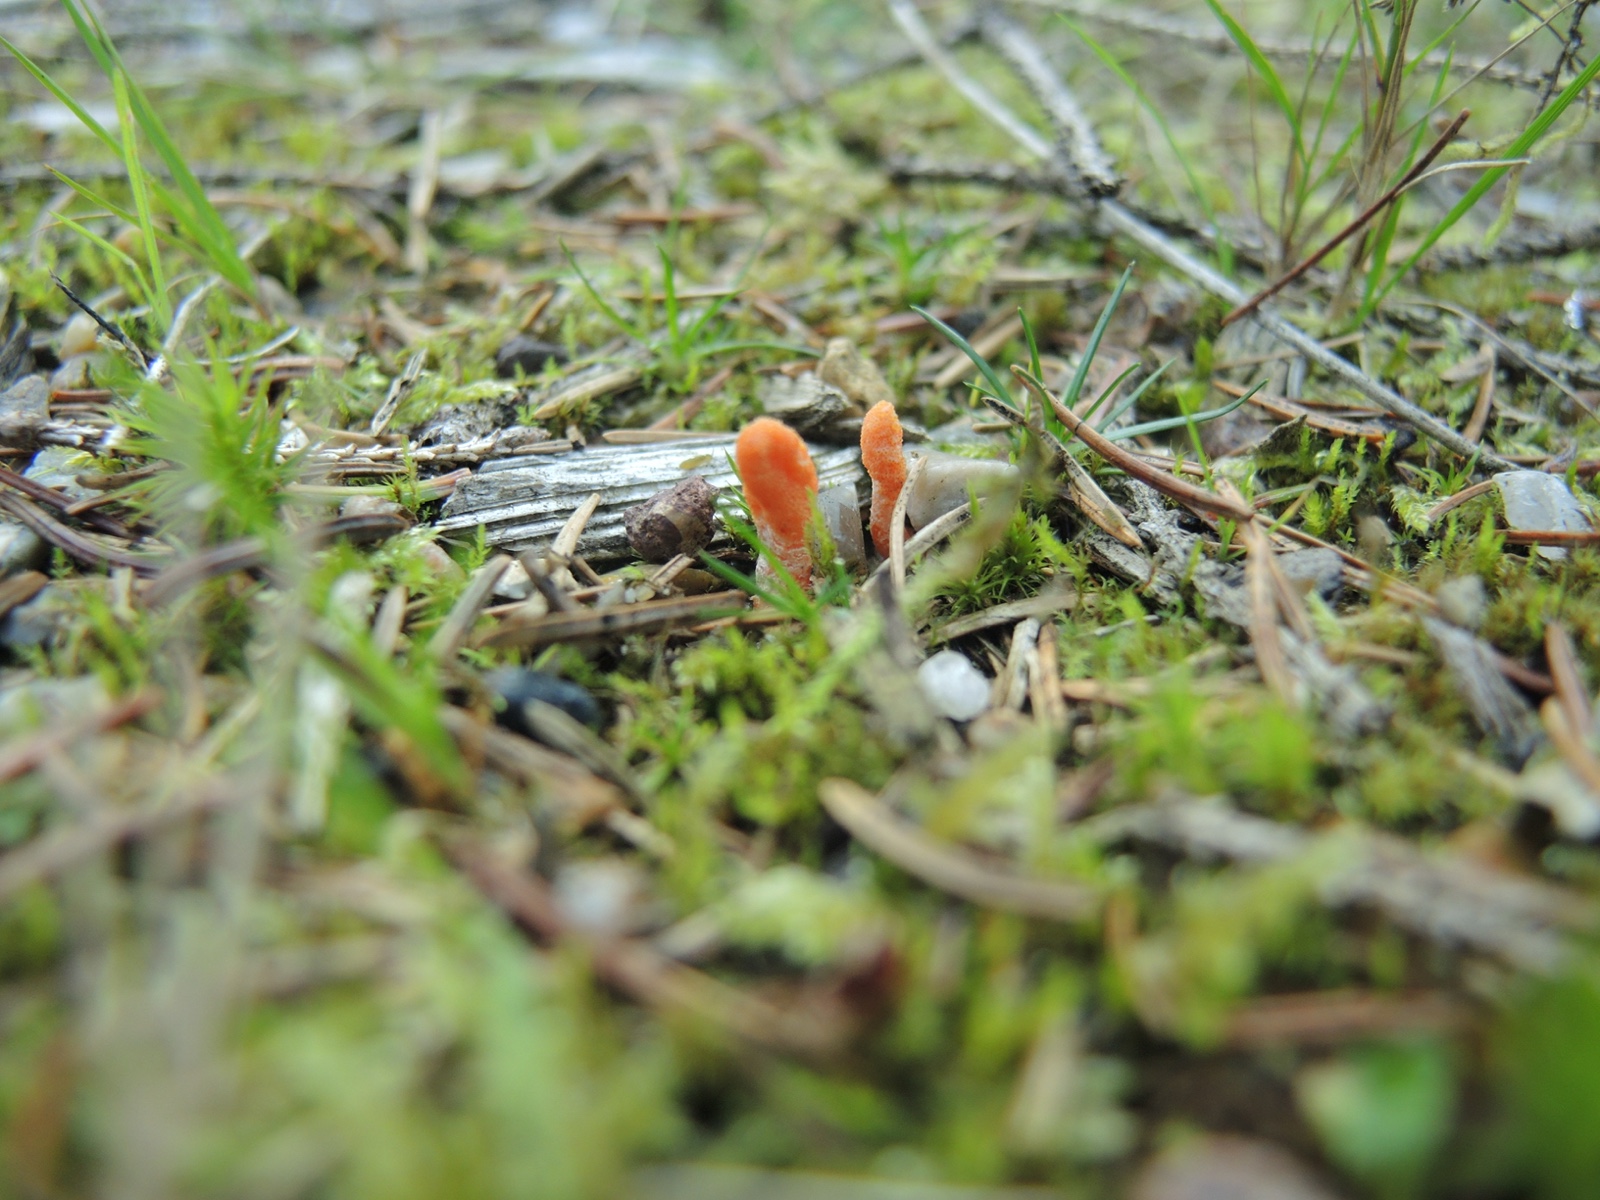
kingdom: Fungi
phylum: Ascomycota
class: Sordariomycetes
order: Hypocreales
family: Cordycipitaceae
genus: Cordyceps
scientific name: Cordyceps militaris
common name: puppe-snyltekølle
